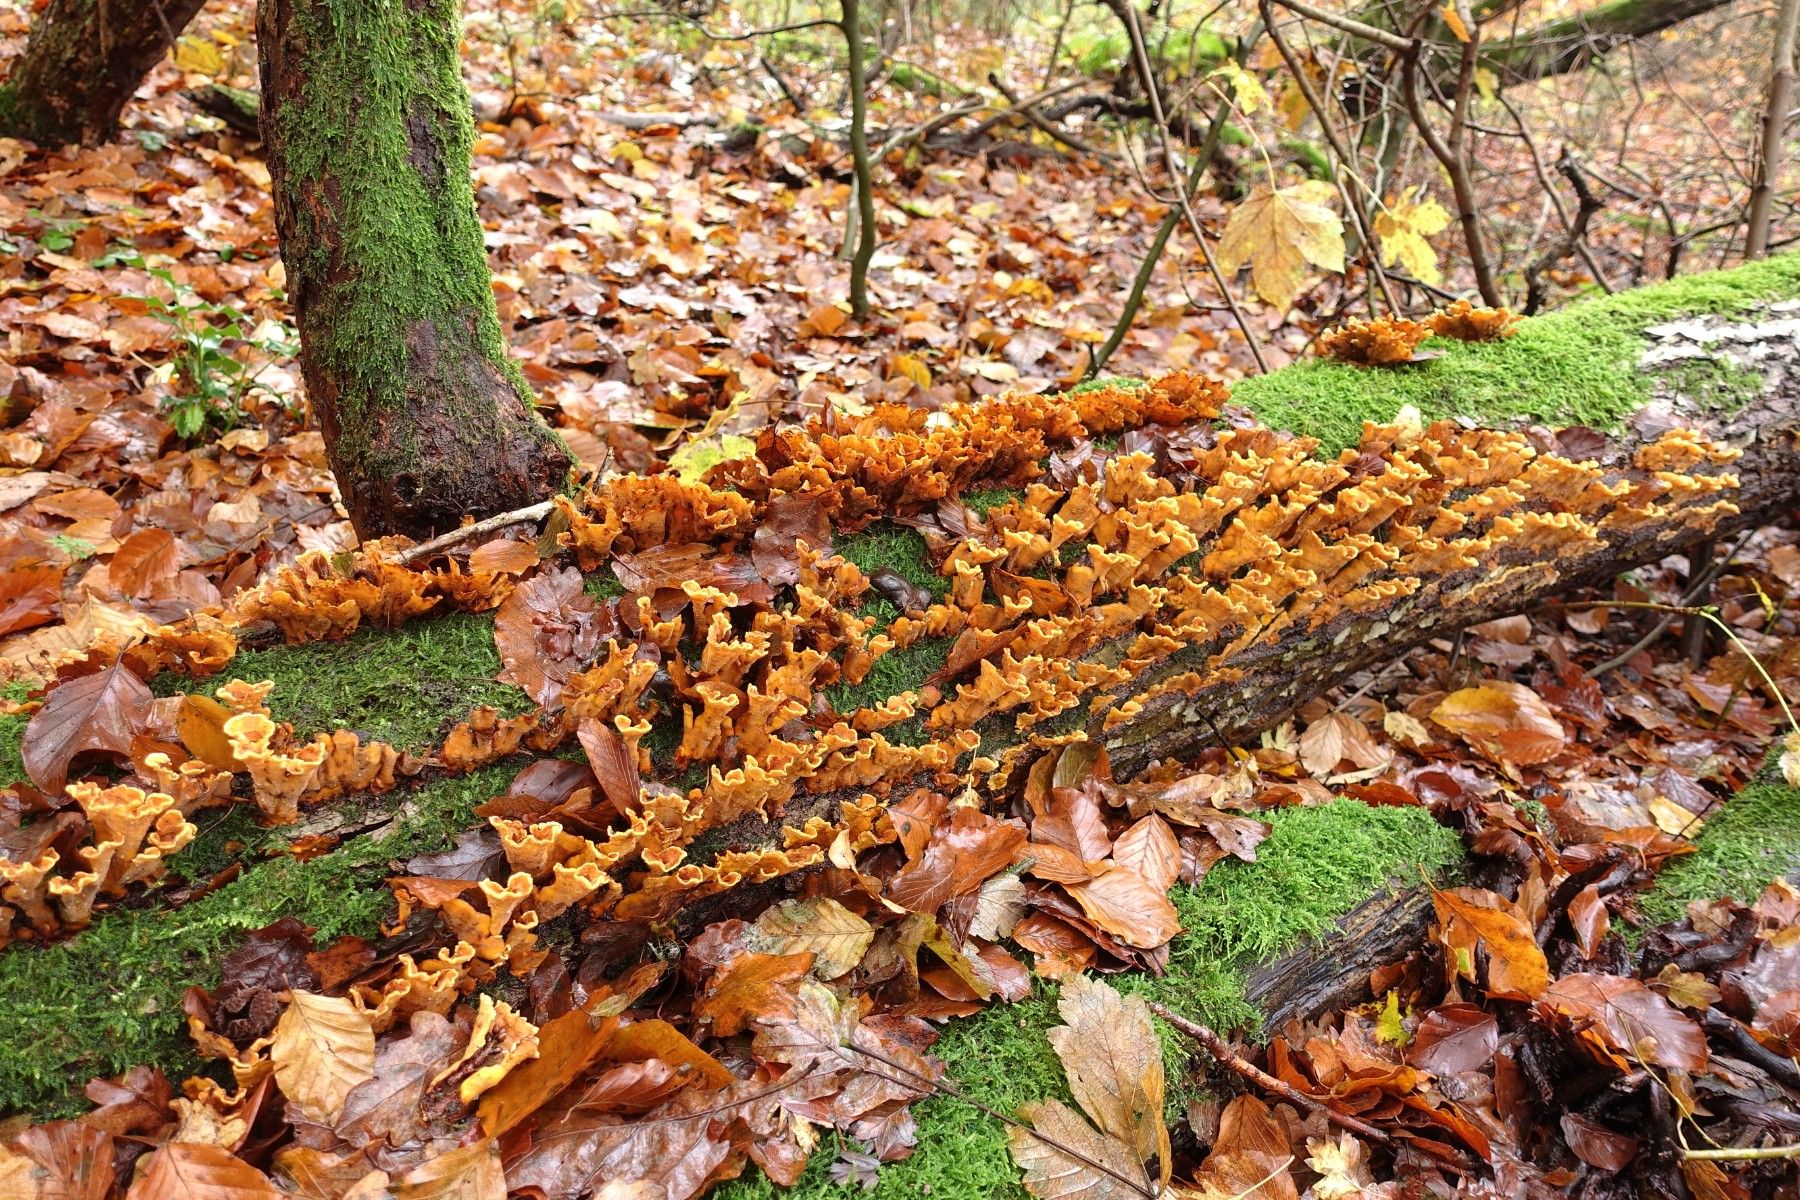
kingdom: Fungi
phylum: Basidiomycota
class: Agaricomycetes
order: Russulales
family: Stereaceae
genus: Stereum
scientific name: Stereum subtomentosum
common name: smuk lædersvamp
